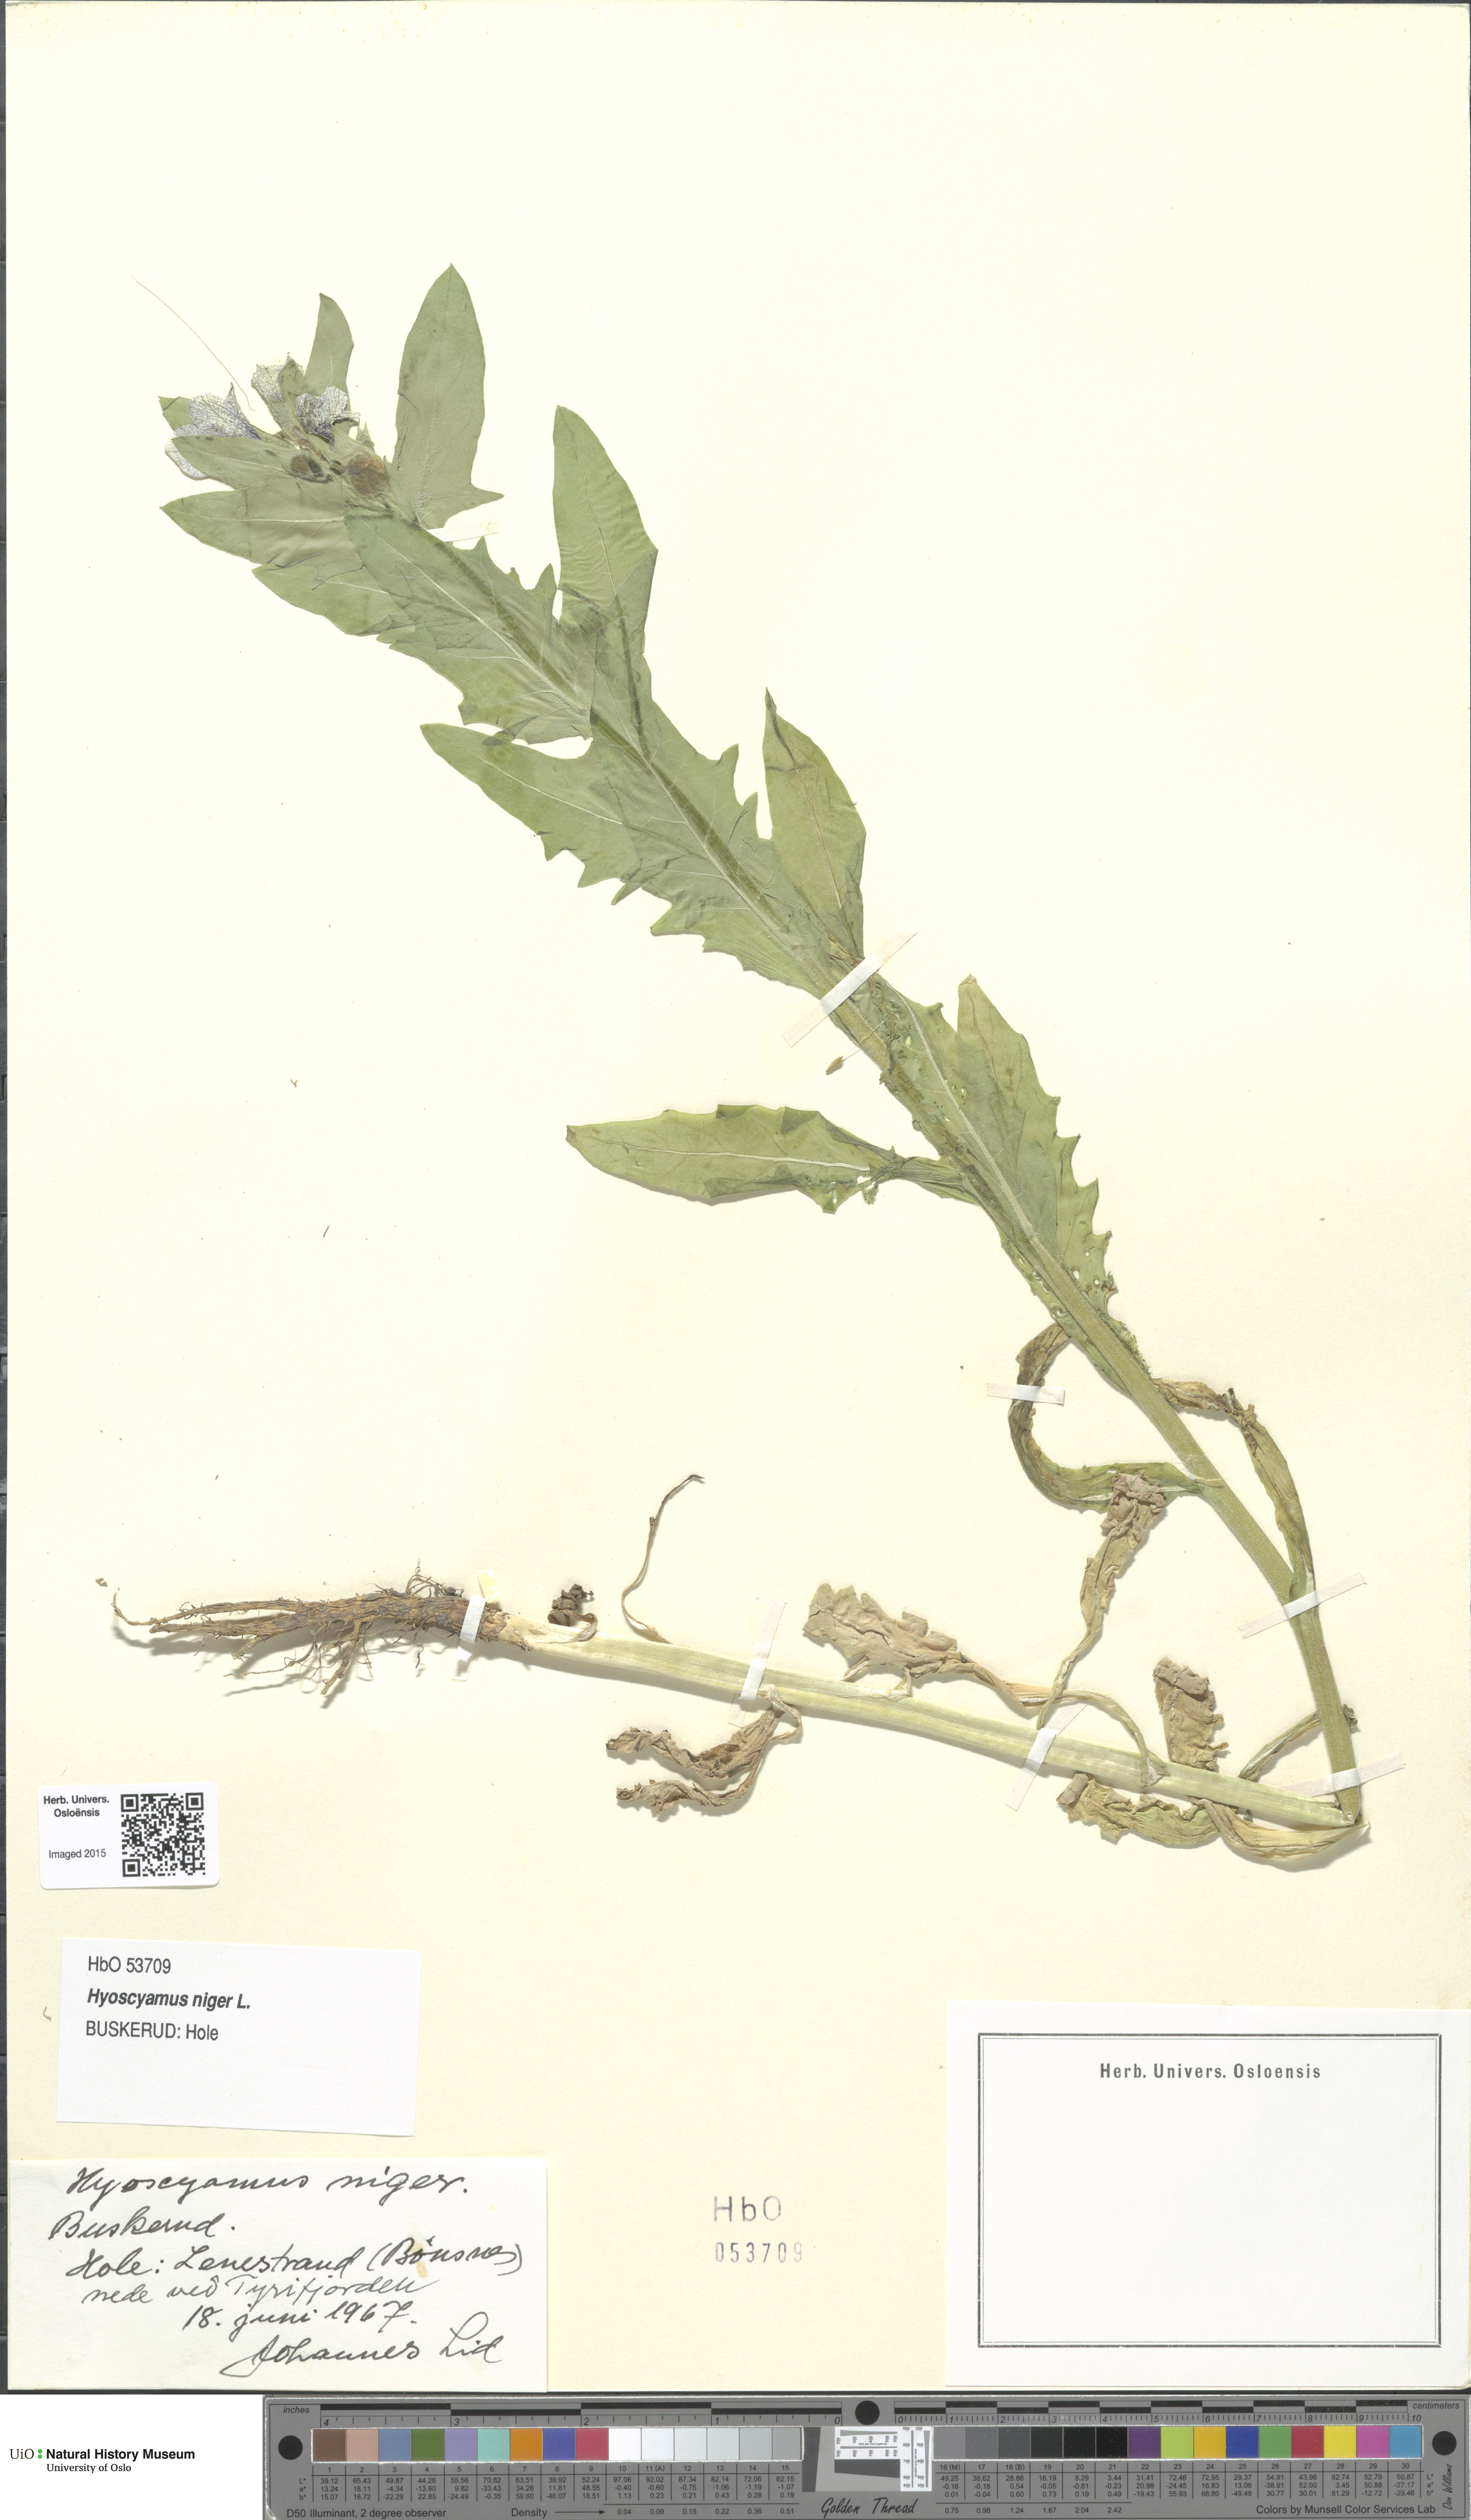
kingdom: Plantae
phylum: Tracheophyta
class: Magnoliopsida
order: Solanales
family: Solanaceae
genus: Hyoscyamus
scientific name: Hyoscyamus niger
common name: Henbane
